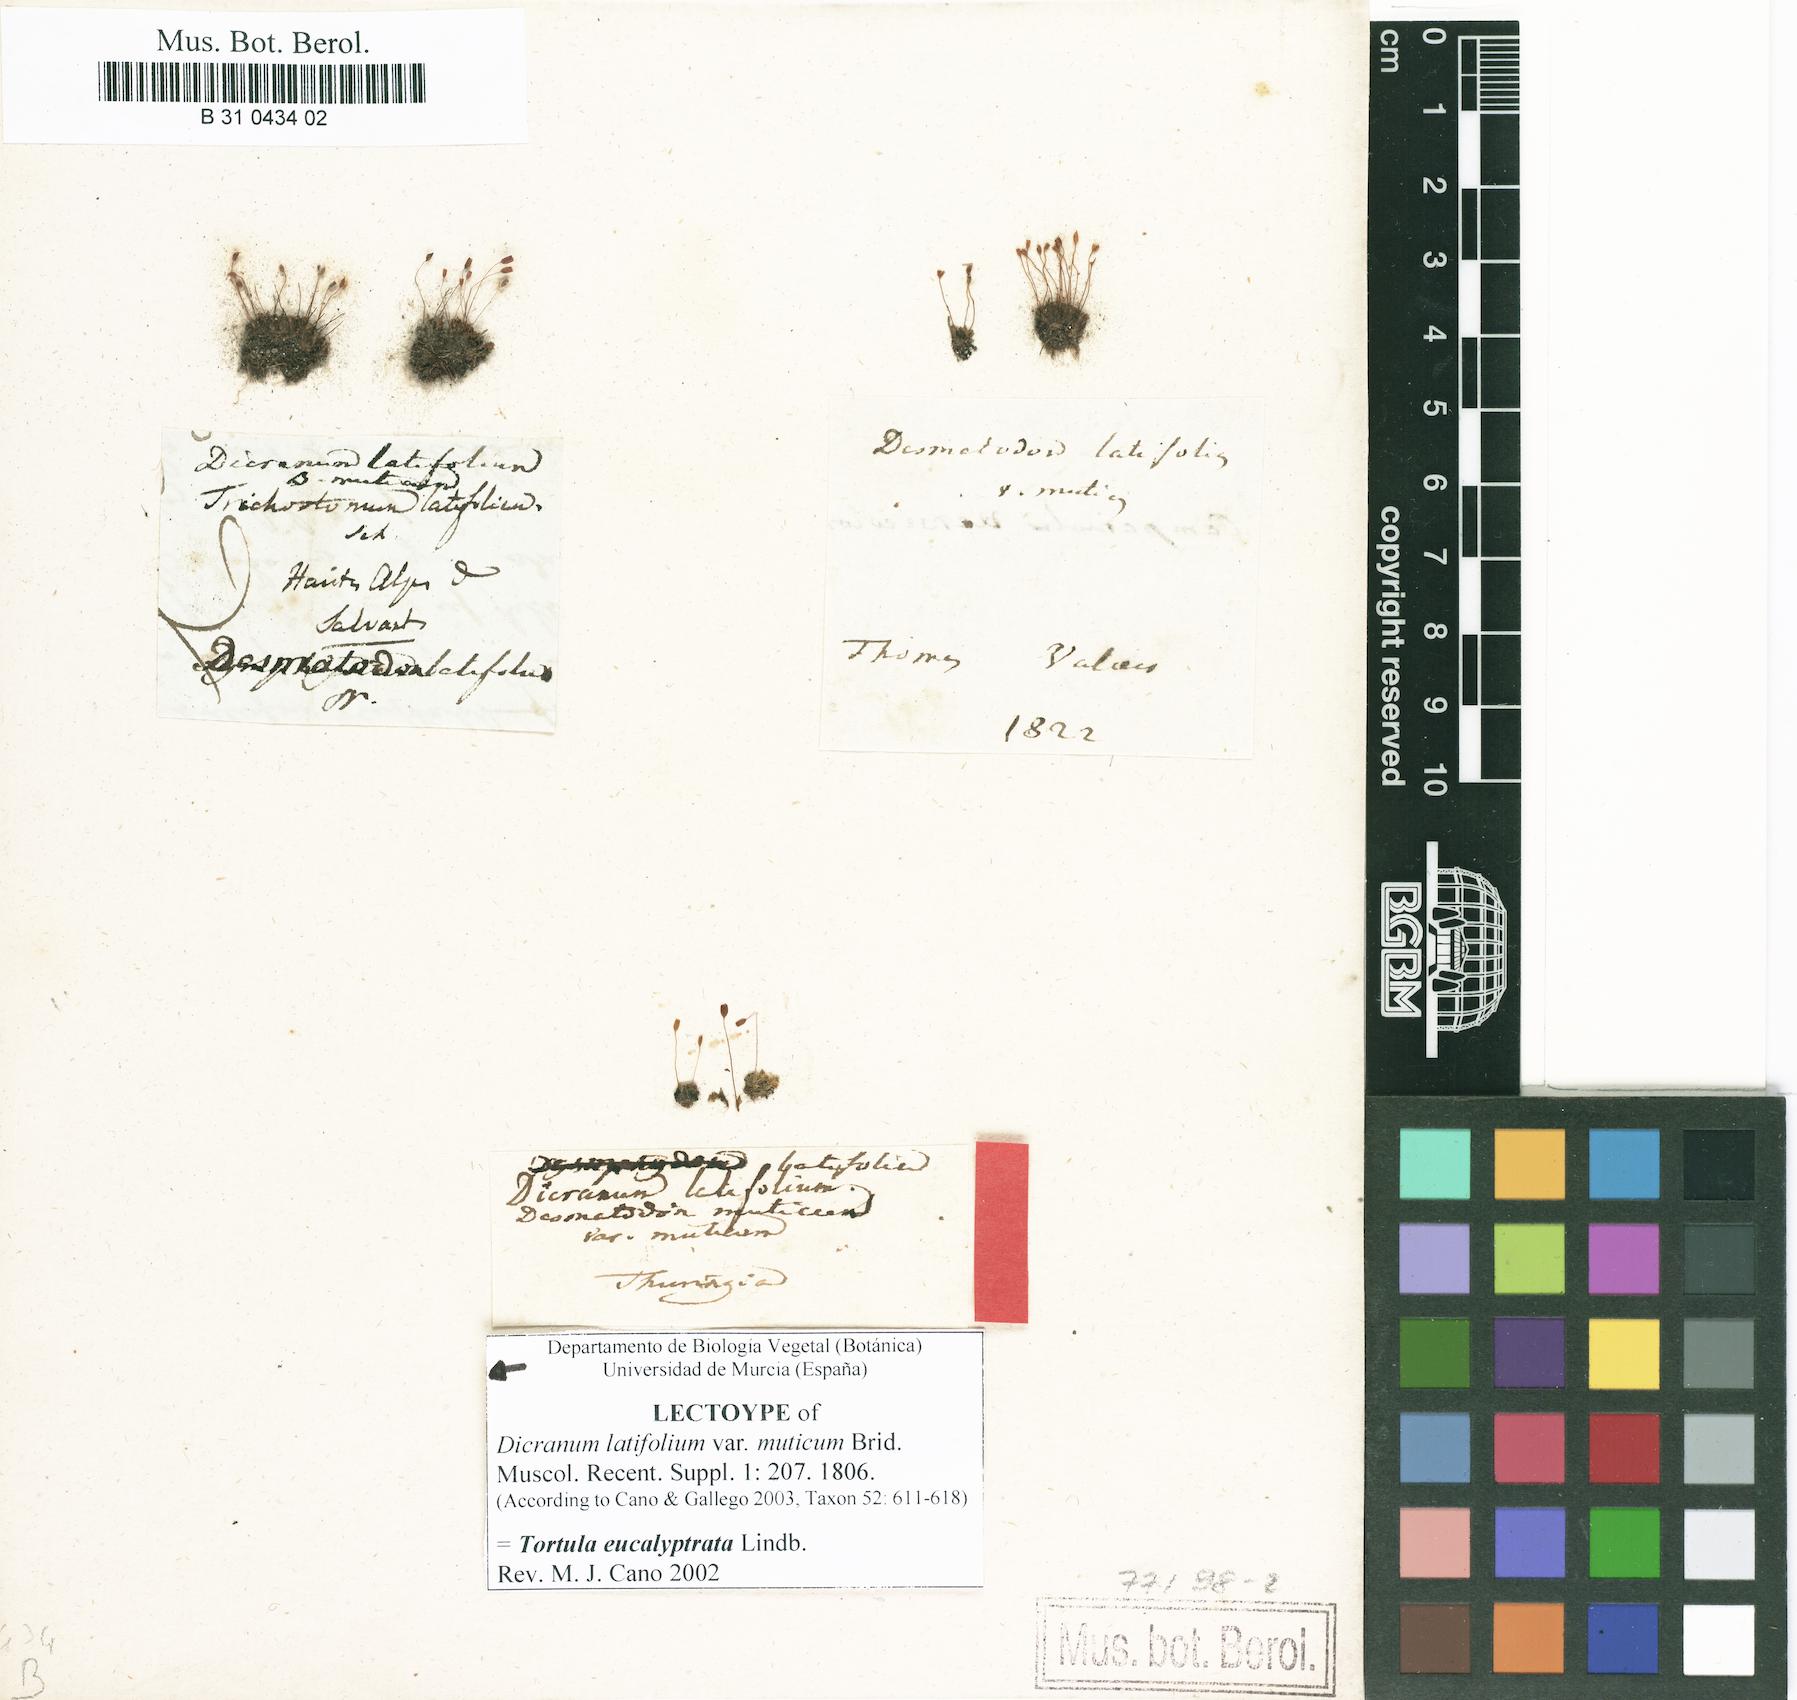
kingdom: Plantae
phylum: Bryophyta
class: Bryopsida
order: Pottiales
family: Pottiaceae
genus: Tortula
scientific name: Tortula hoppeana
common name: Hoppe's screw moss
